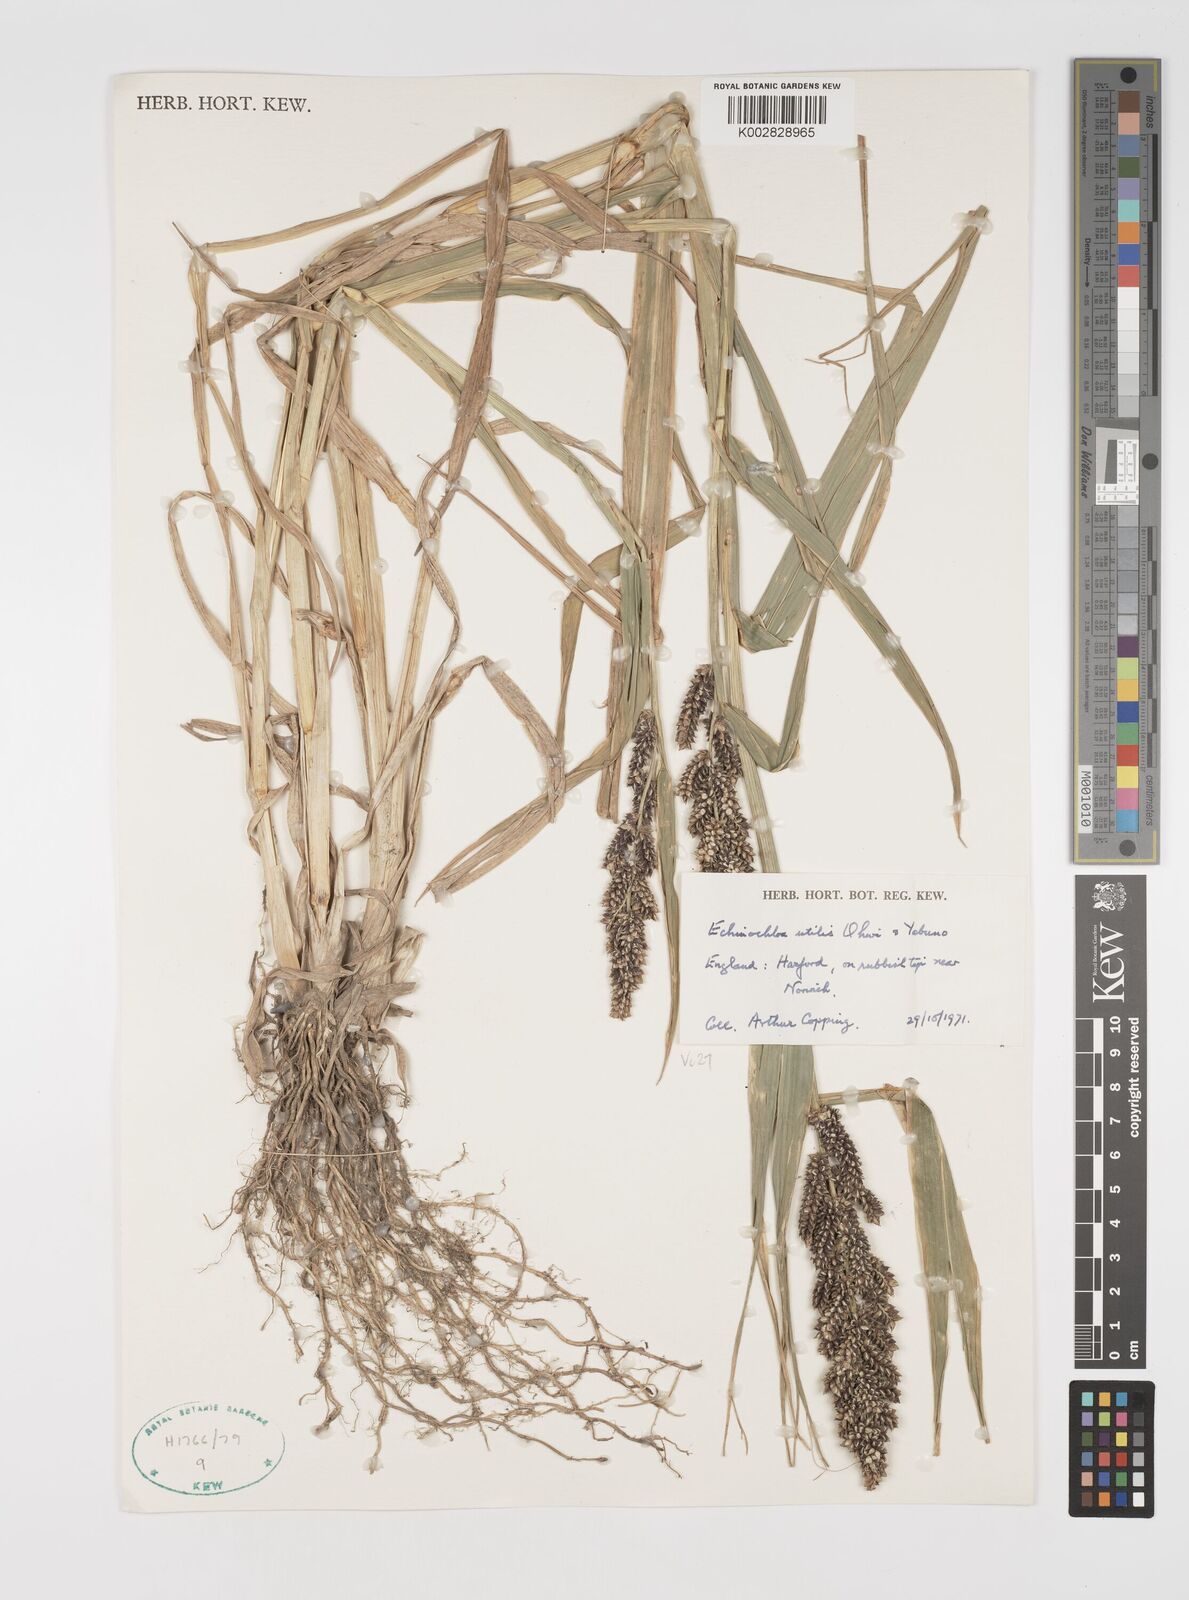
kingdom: Plantae
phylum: Tracheophyta
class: Liliopsida
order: Poales
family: Poaceae
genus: Echinochloa
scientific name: Echinochloa crus-galli
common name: Cockspur
